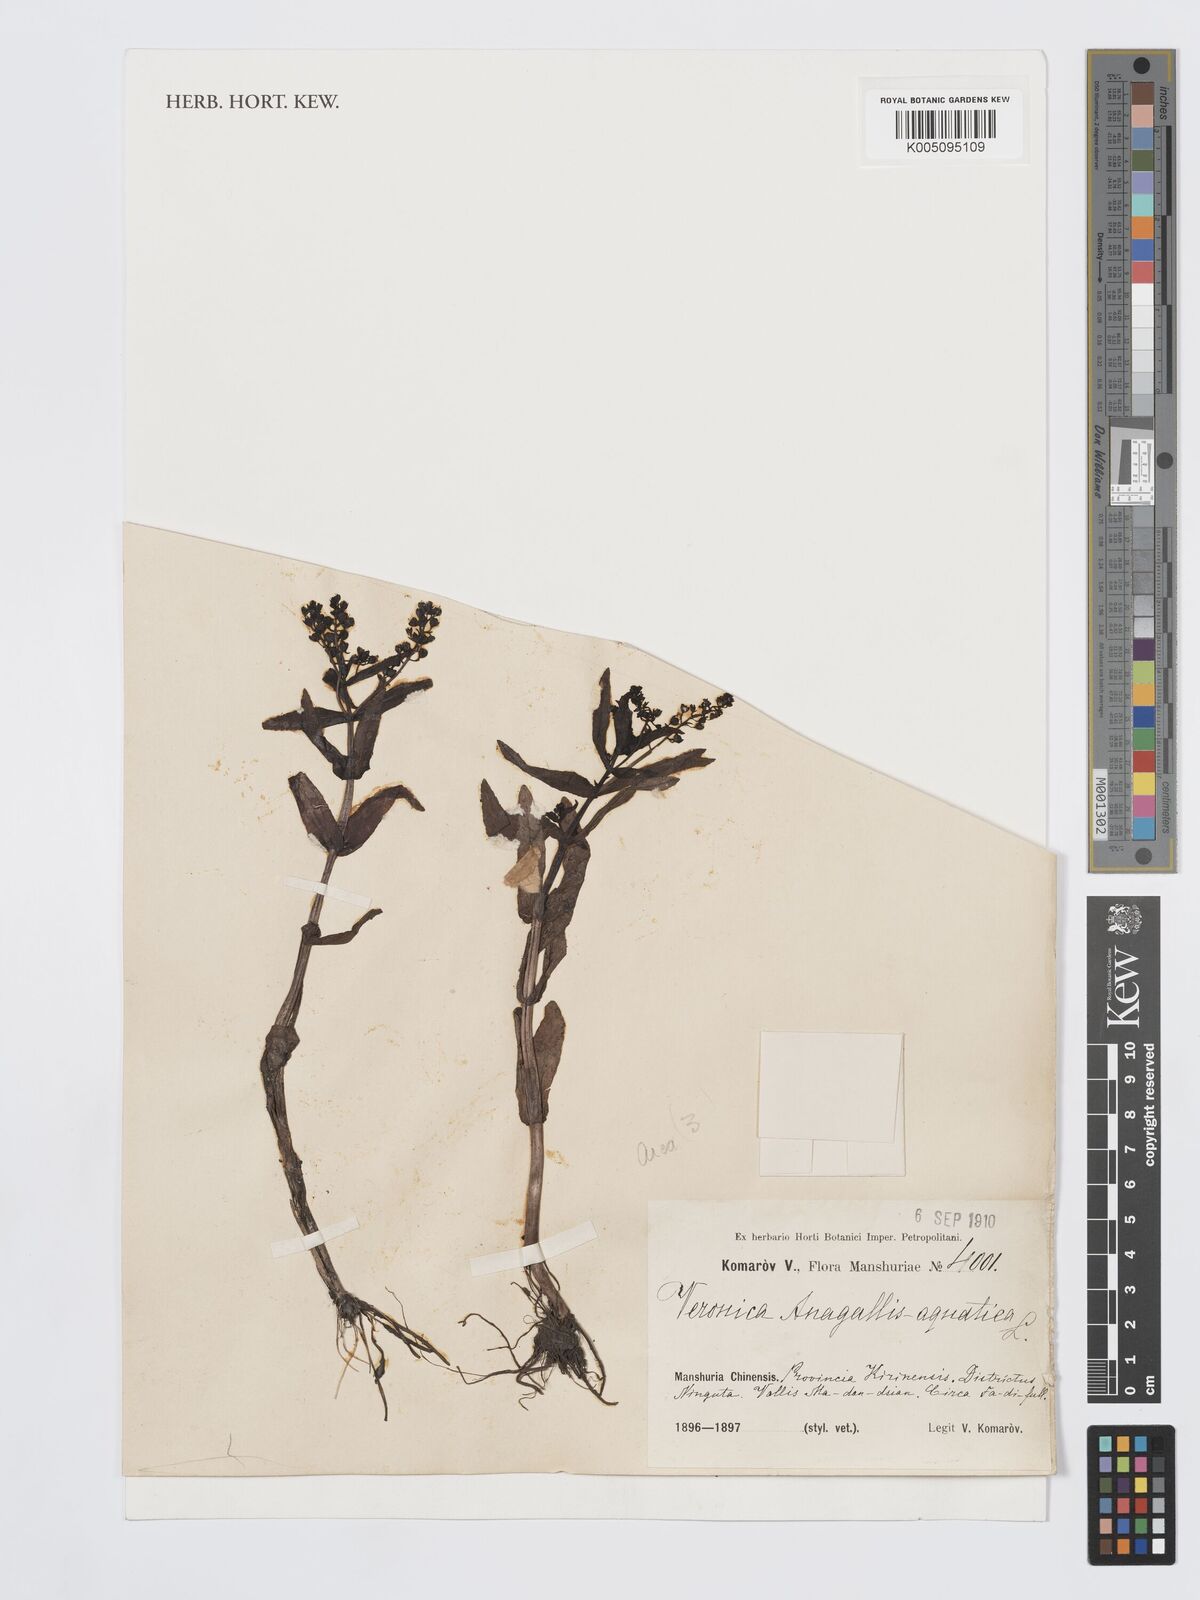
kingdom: Plantae
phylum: Tracheophyta
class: Magnoliopsida
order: Lamiales
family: Plantaginaceae
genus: Veronica
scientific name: Veronica anagallis-aquatica
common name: Water speedwell
